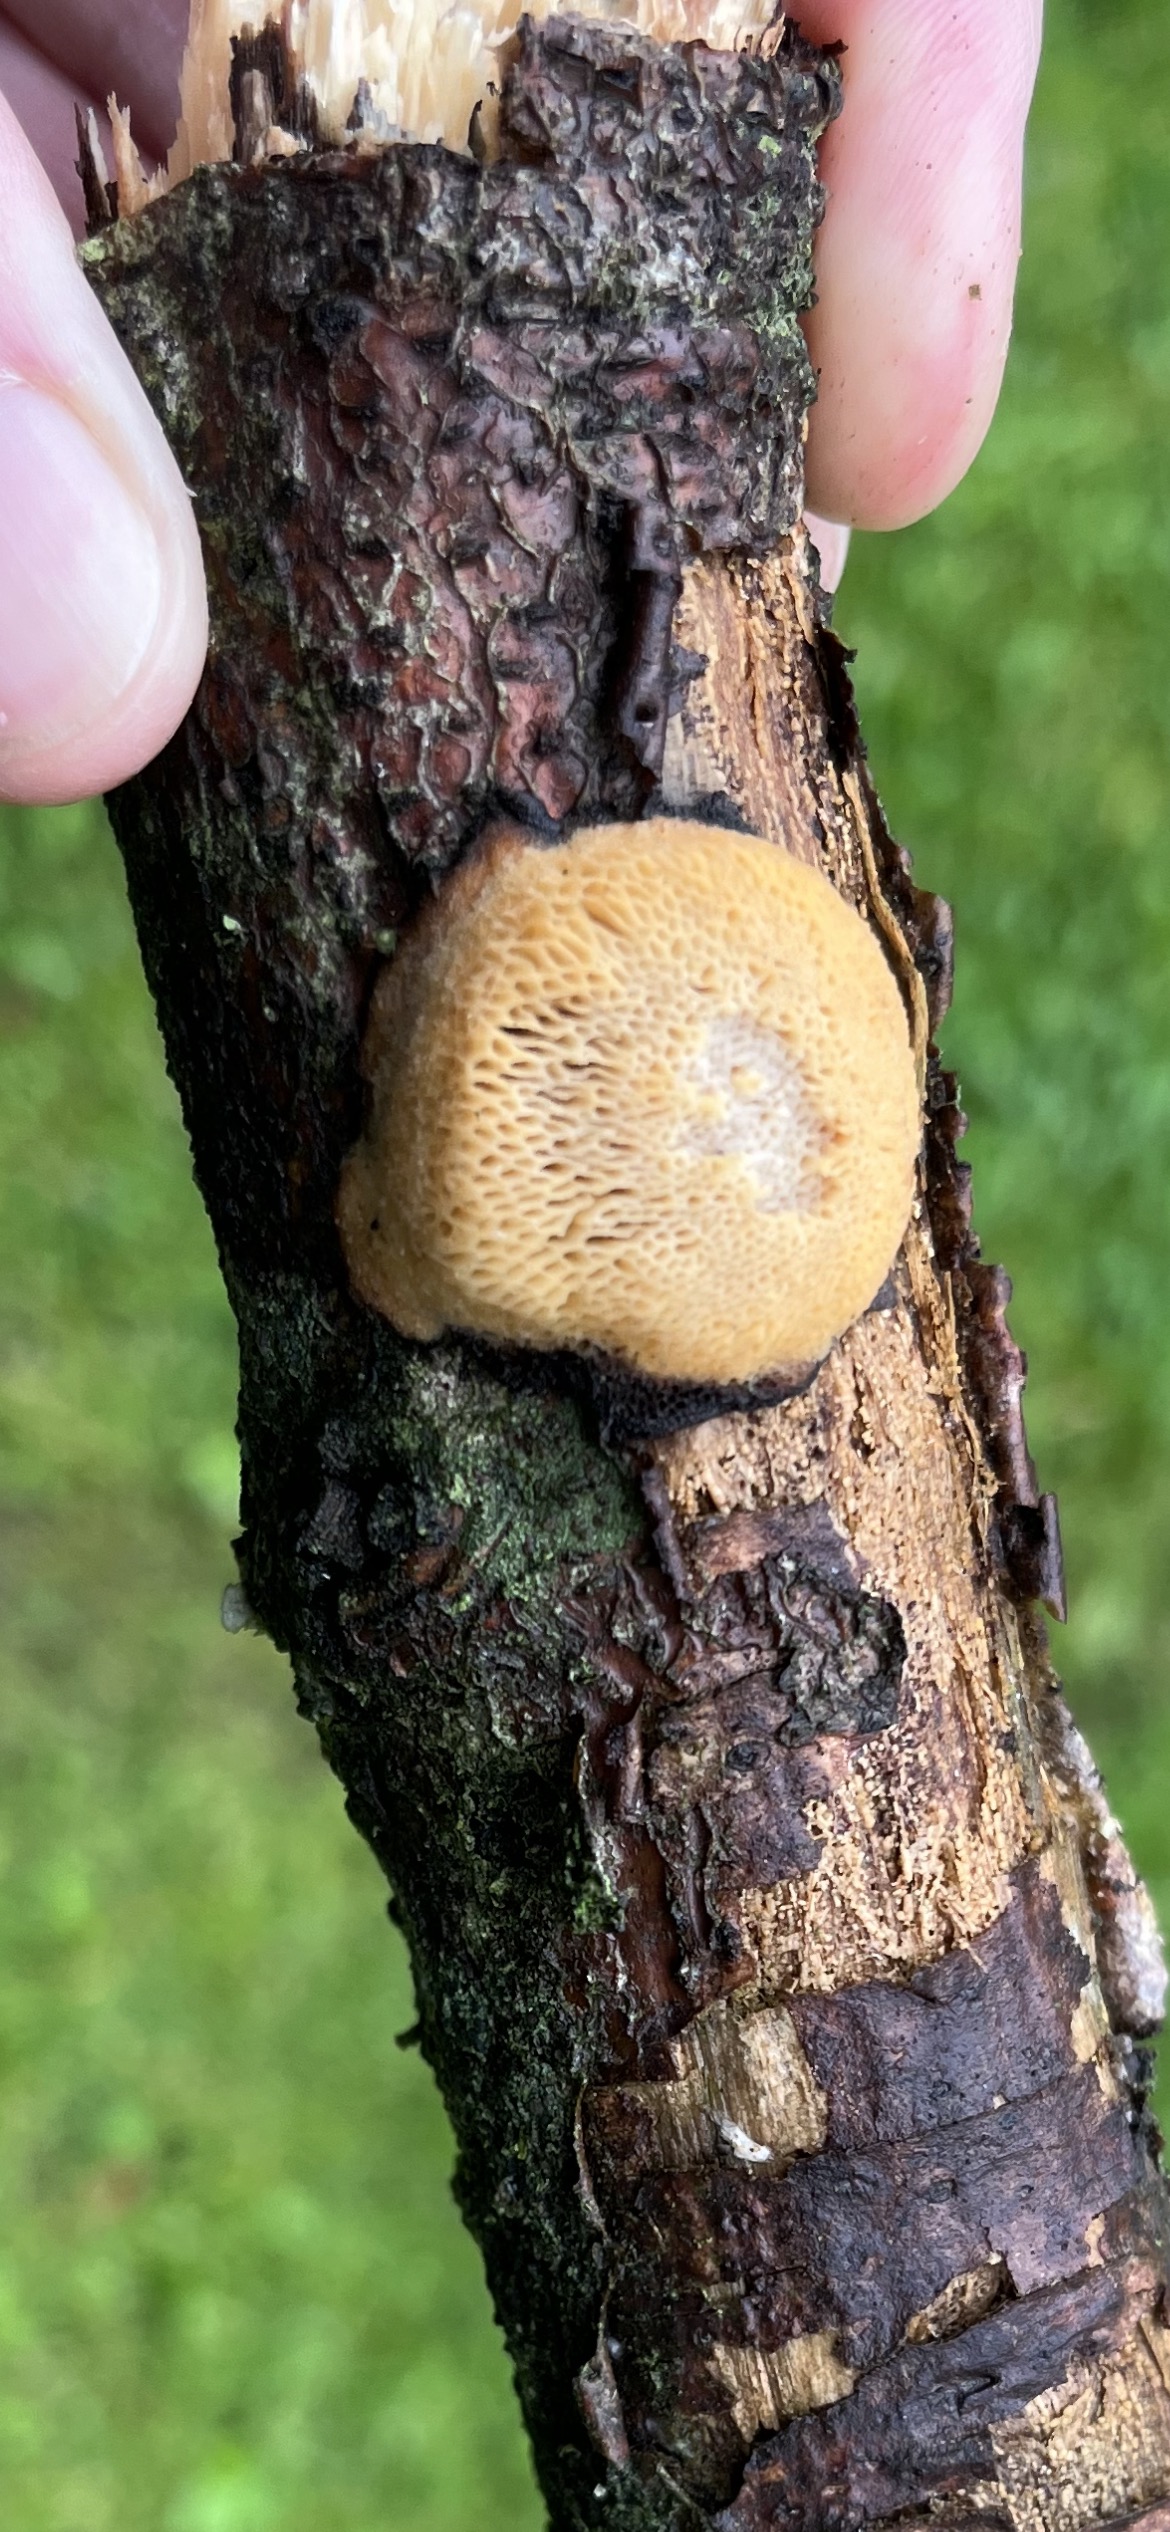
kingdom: Fungi
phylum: Basidiomycota
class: Agaricomycetes
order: Polyporales
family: Polyporaceae
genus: Szczepkamyces
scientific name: Szczepkamyces campestris
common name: hasselporesvamp
